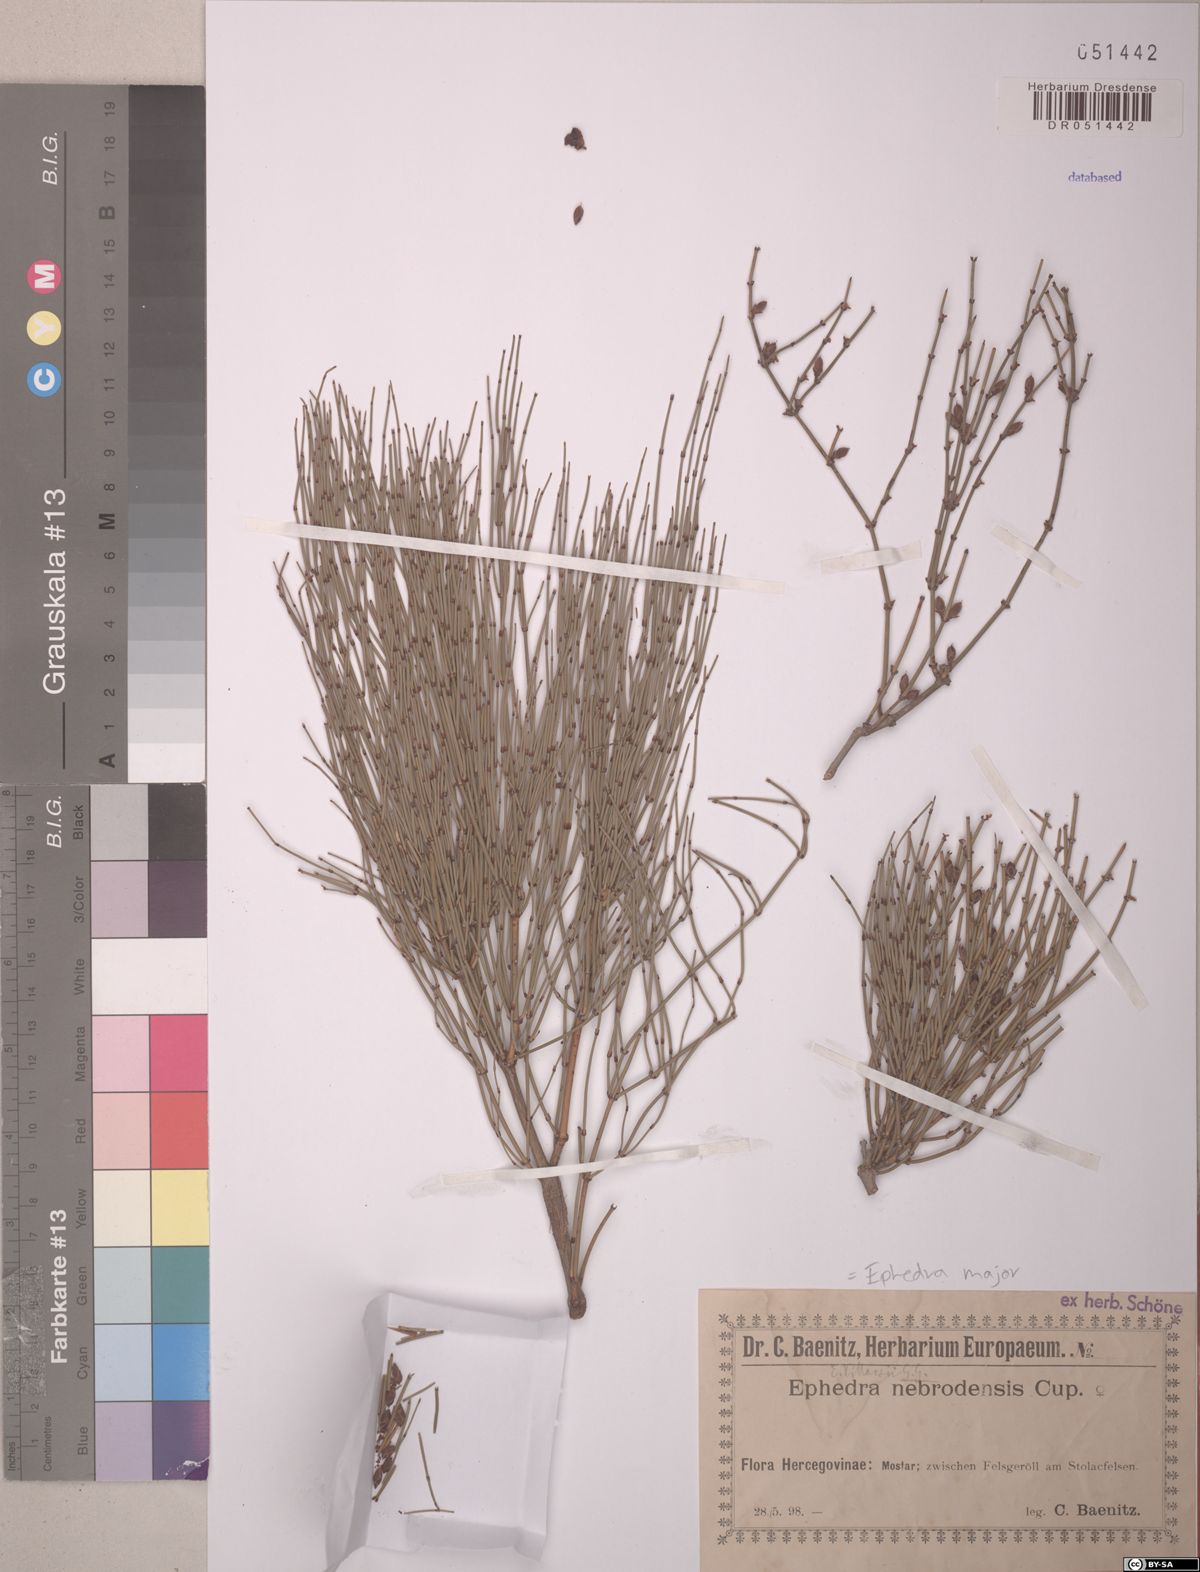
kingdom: Plantae
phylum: Tracheophyta
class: Gnetopsida
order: Ephedrales
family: Ephedraceae
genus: Ephedra
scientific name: Ephedra foeminea
